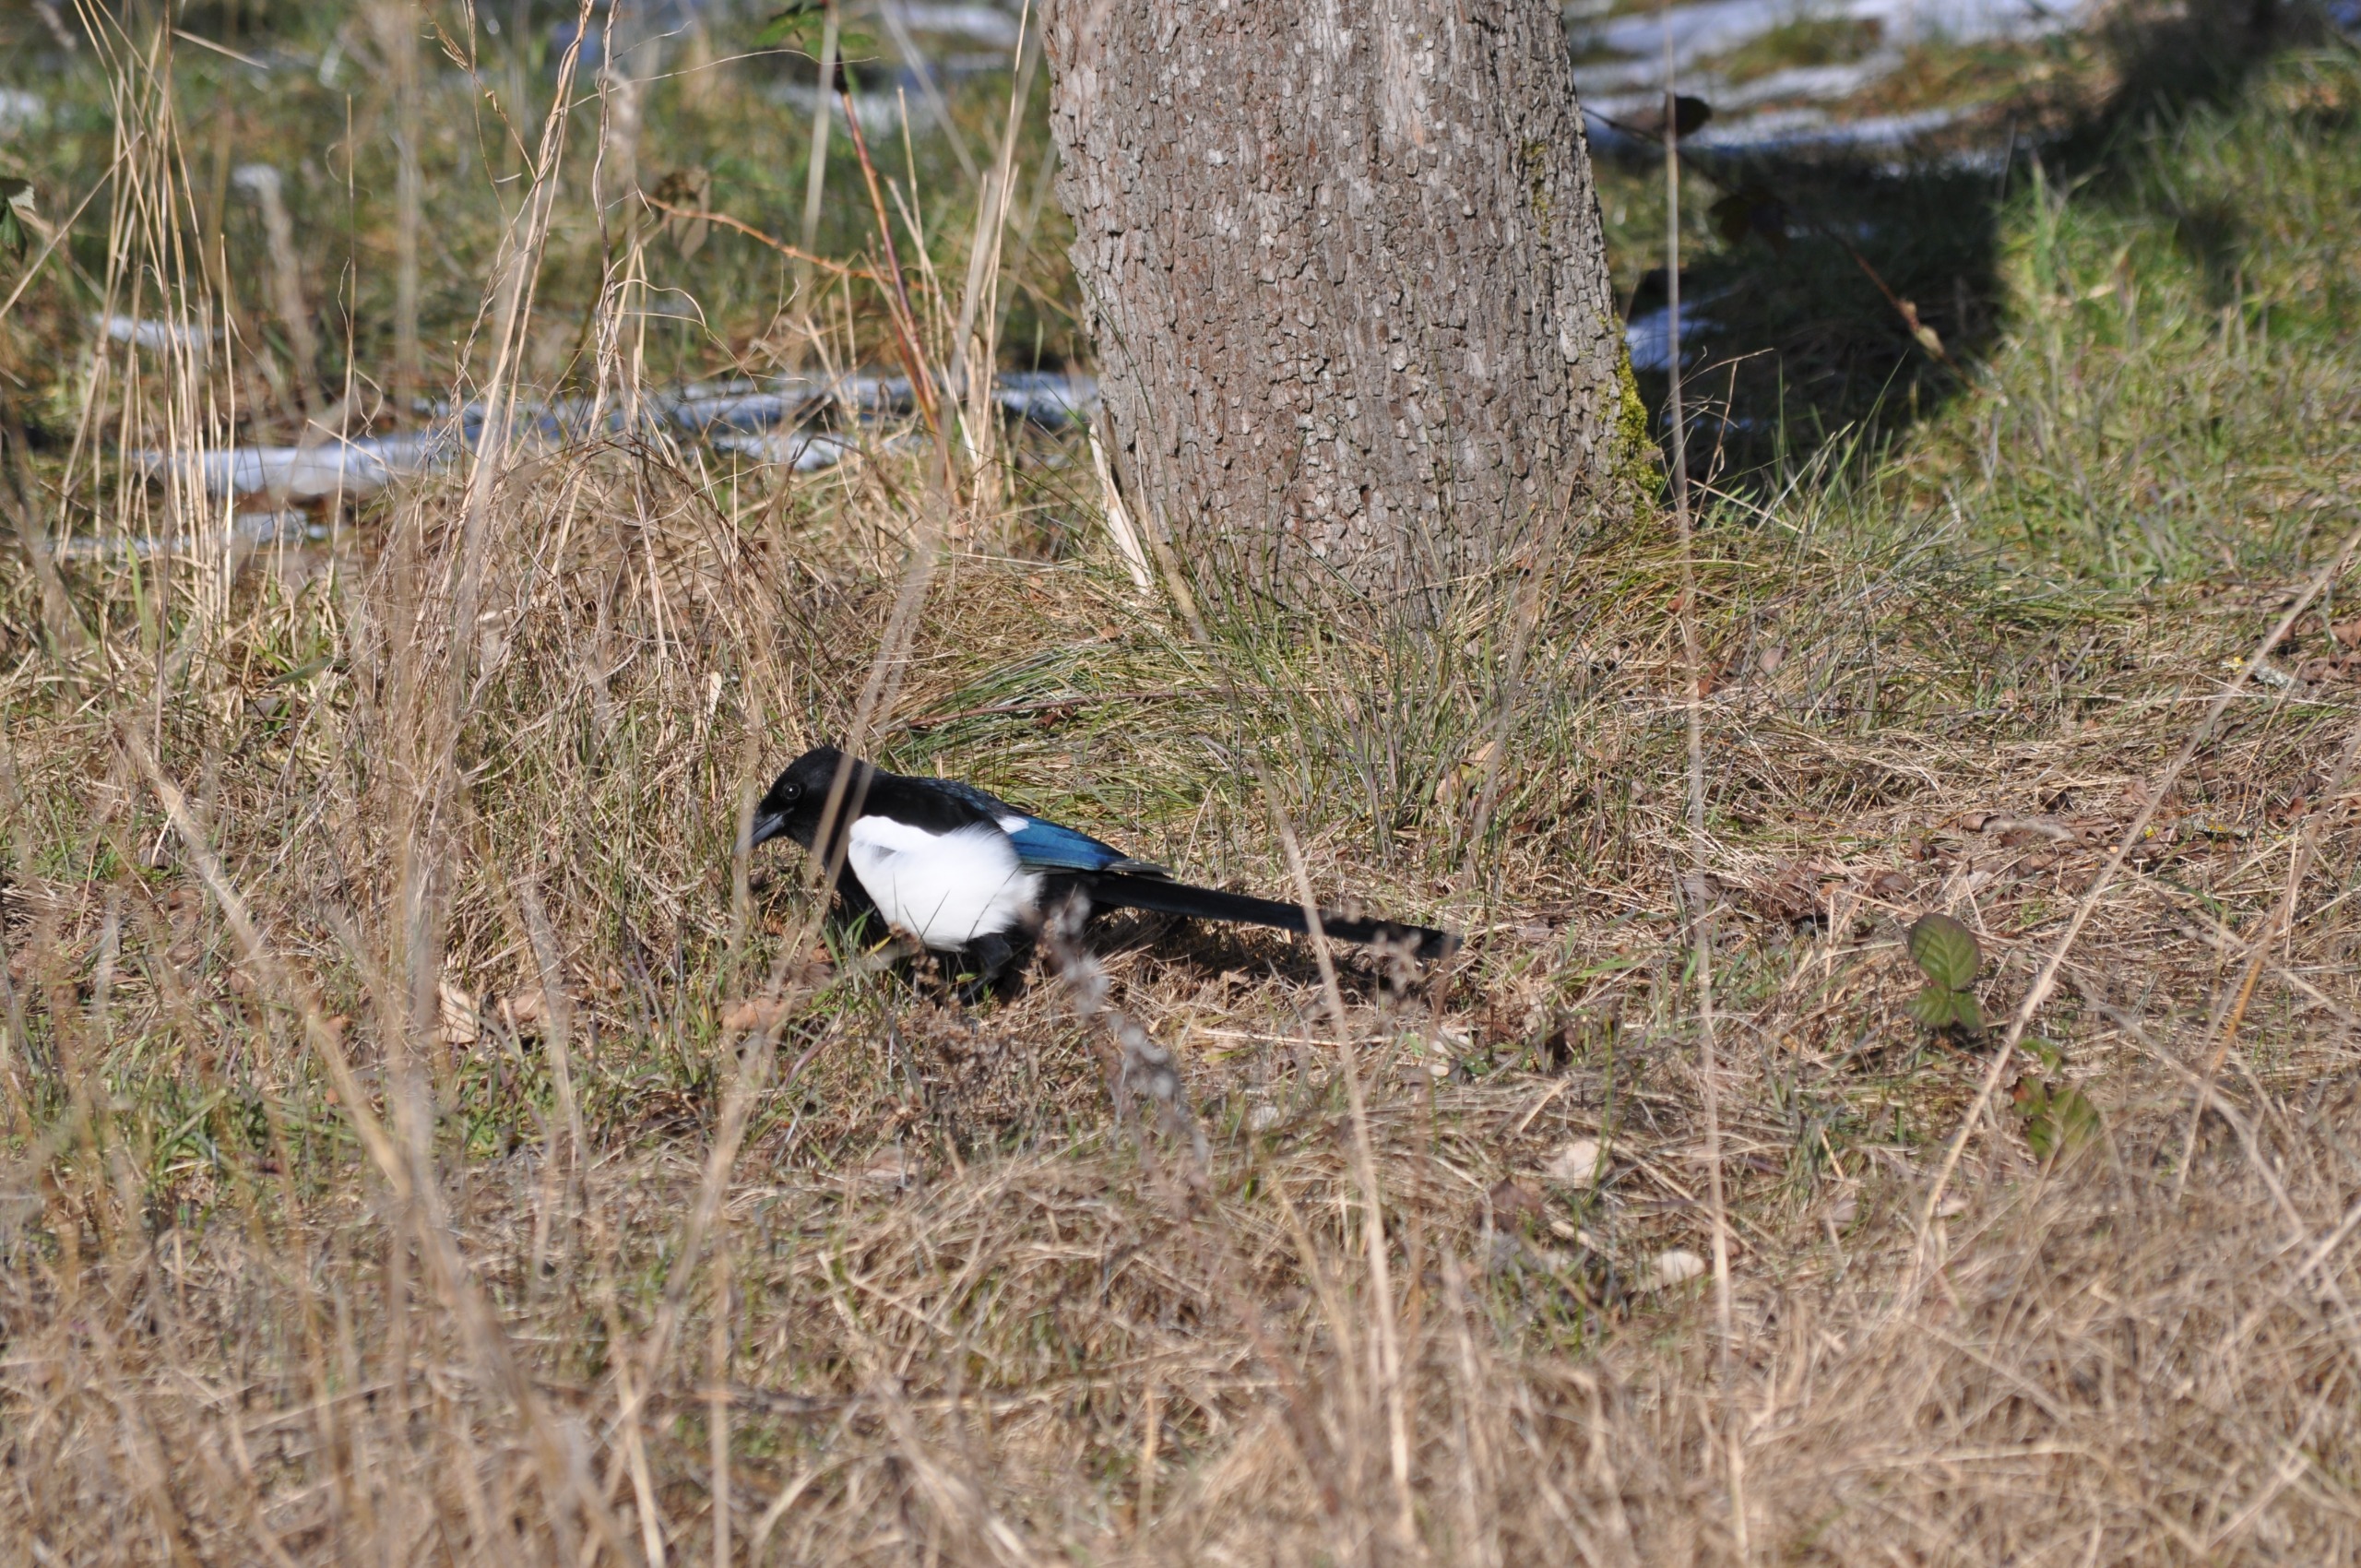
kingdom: Animalia
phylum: Chordata
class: Aves
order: Passeriformes
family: Corvidae
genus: Pica
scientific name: Pica pica
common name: Husskade
